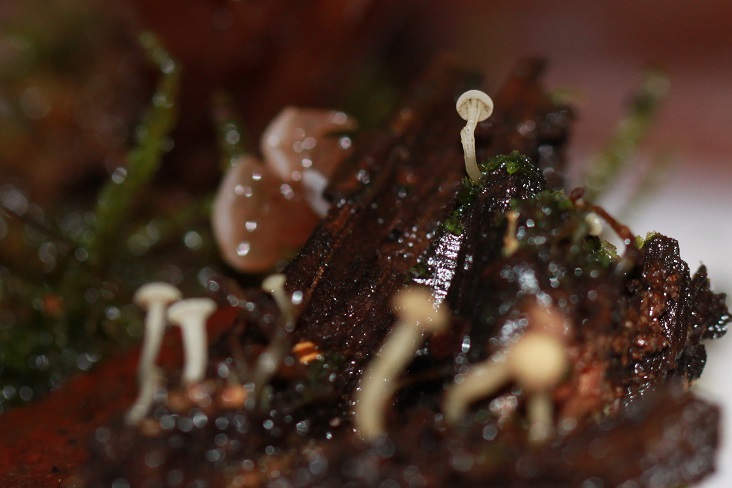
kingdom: Fungi
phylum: Ascomycota
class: Leotiomycetes
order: Helotiales
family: Tricladiaceae
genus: Cudoniella
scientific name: Cudoniella acicularis
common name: ege-dyndskive
